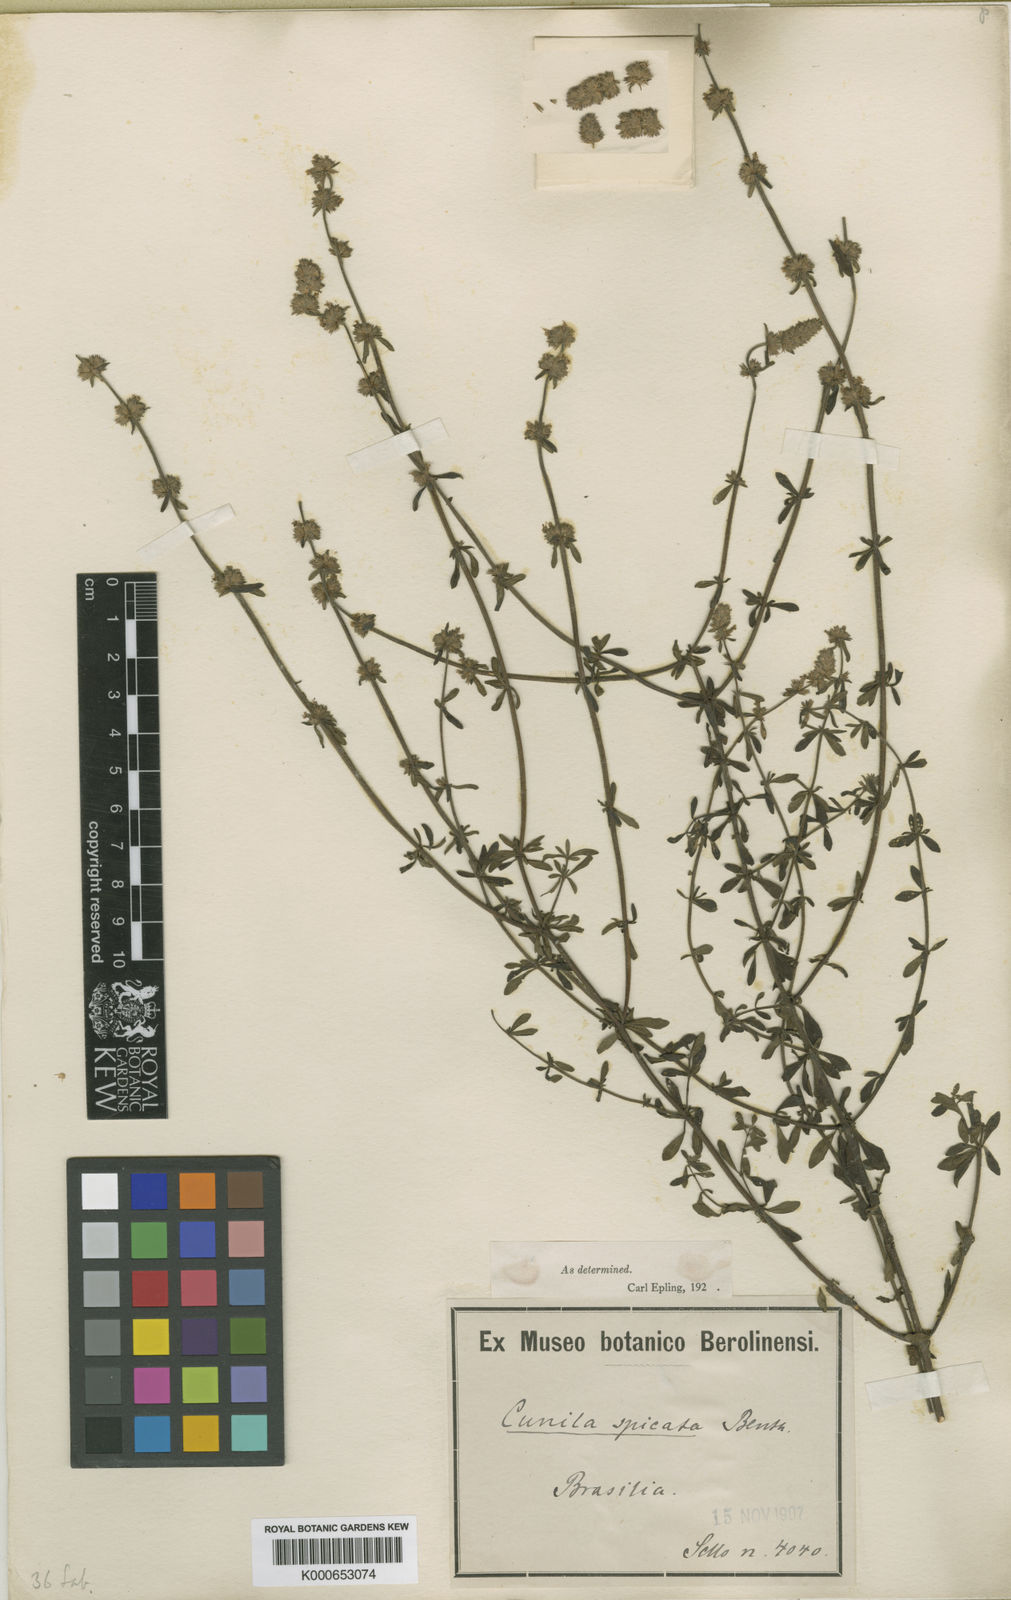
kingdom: Plantae
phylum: Tracheophyta
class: Magnoliopsida
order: Lamiales
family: Lamiaceae
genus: Cunila
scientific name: Cunila spicata
